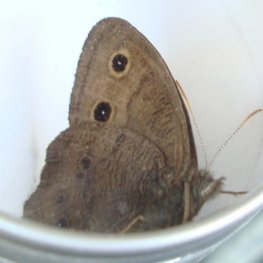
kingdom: Animalia
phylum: Arthropoda
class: Insecta
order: Lepidoptera
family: Nymphalidae
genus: Cercyonis
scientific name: Cercyonis pegala
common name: Common Wood-Nymph
